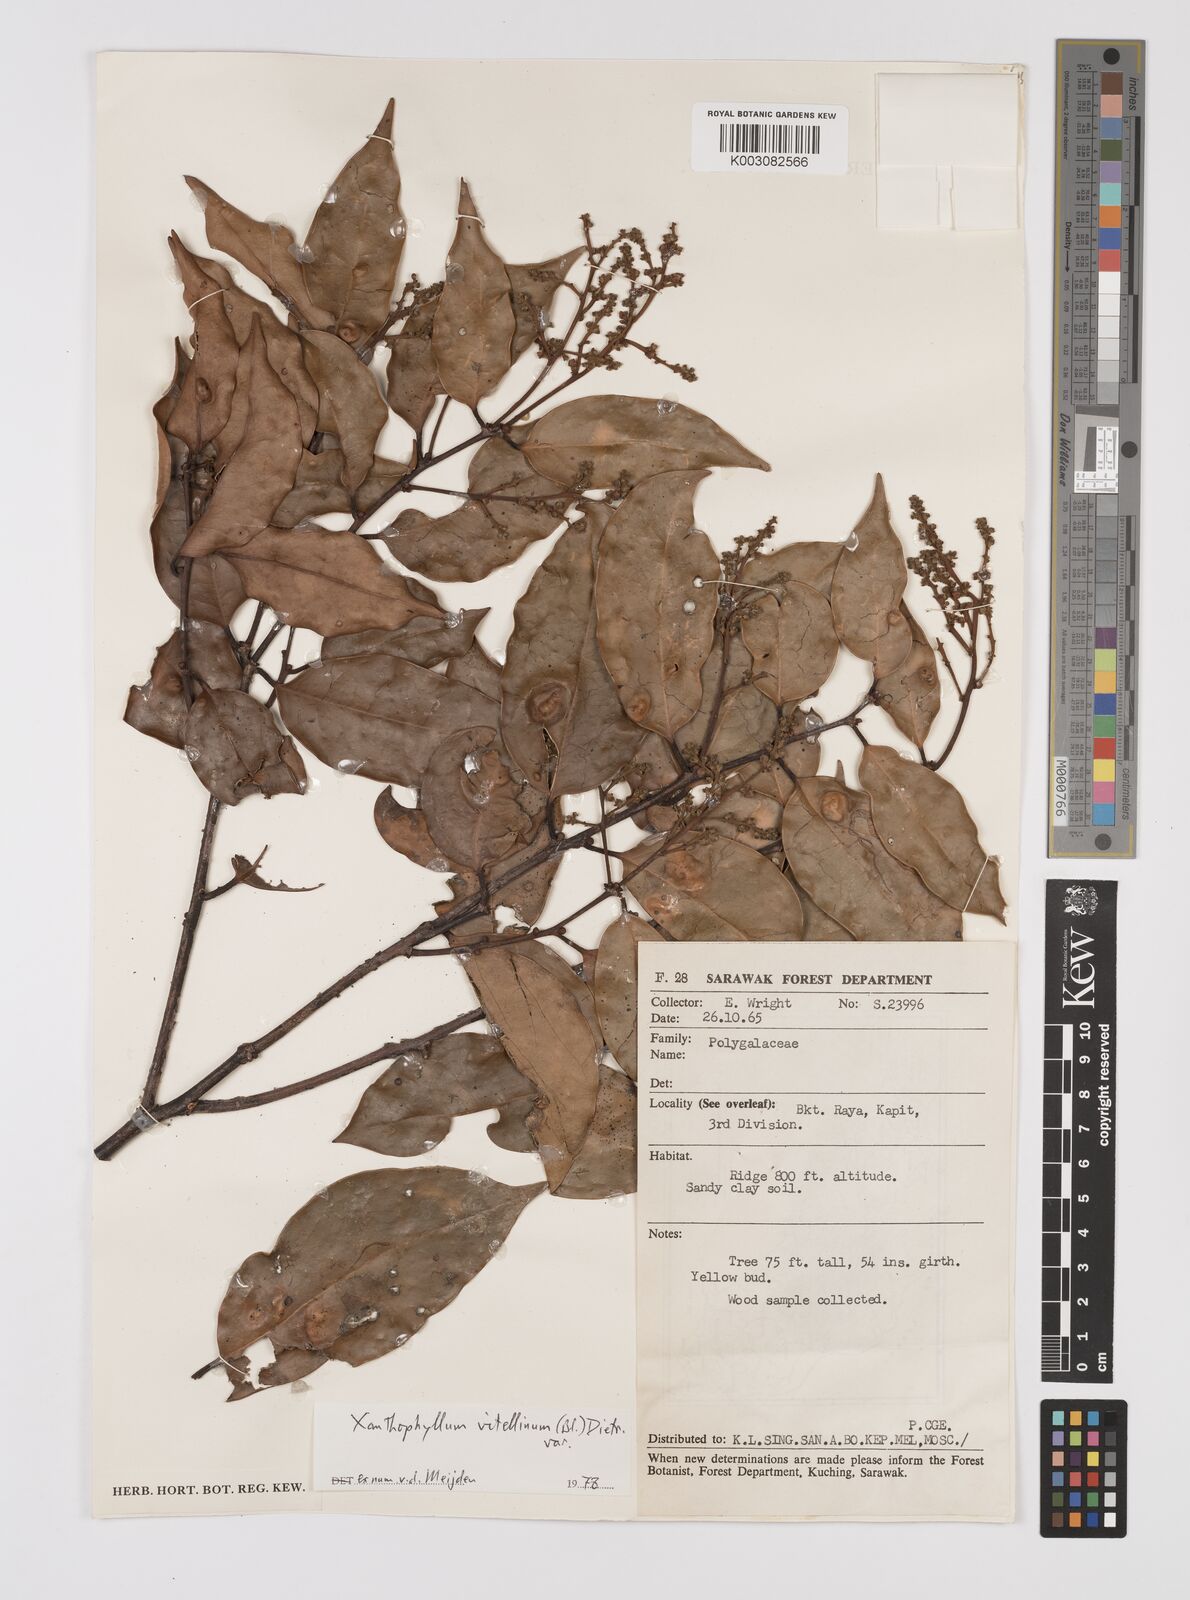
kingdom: Plantae
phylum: Tracheophyta
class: Magnoliopsida
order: Fabales
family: Polygalaceae
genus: Xanthophyllum
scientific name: Xanthophyllum vitellinum
